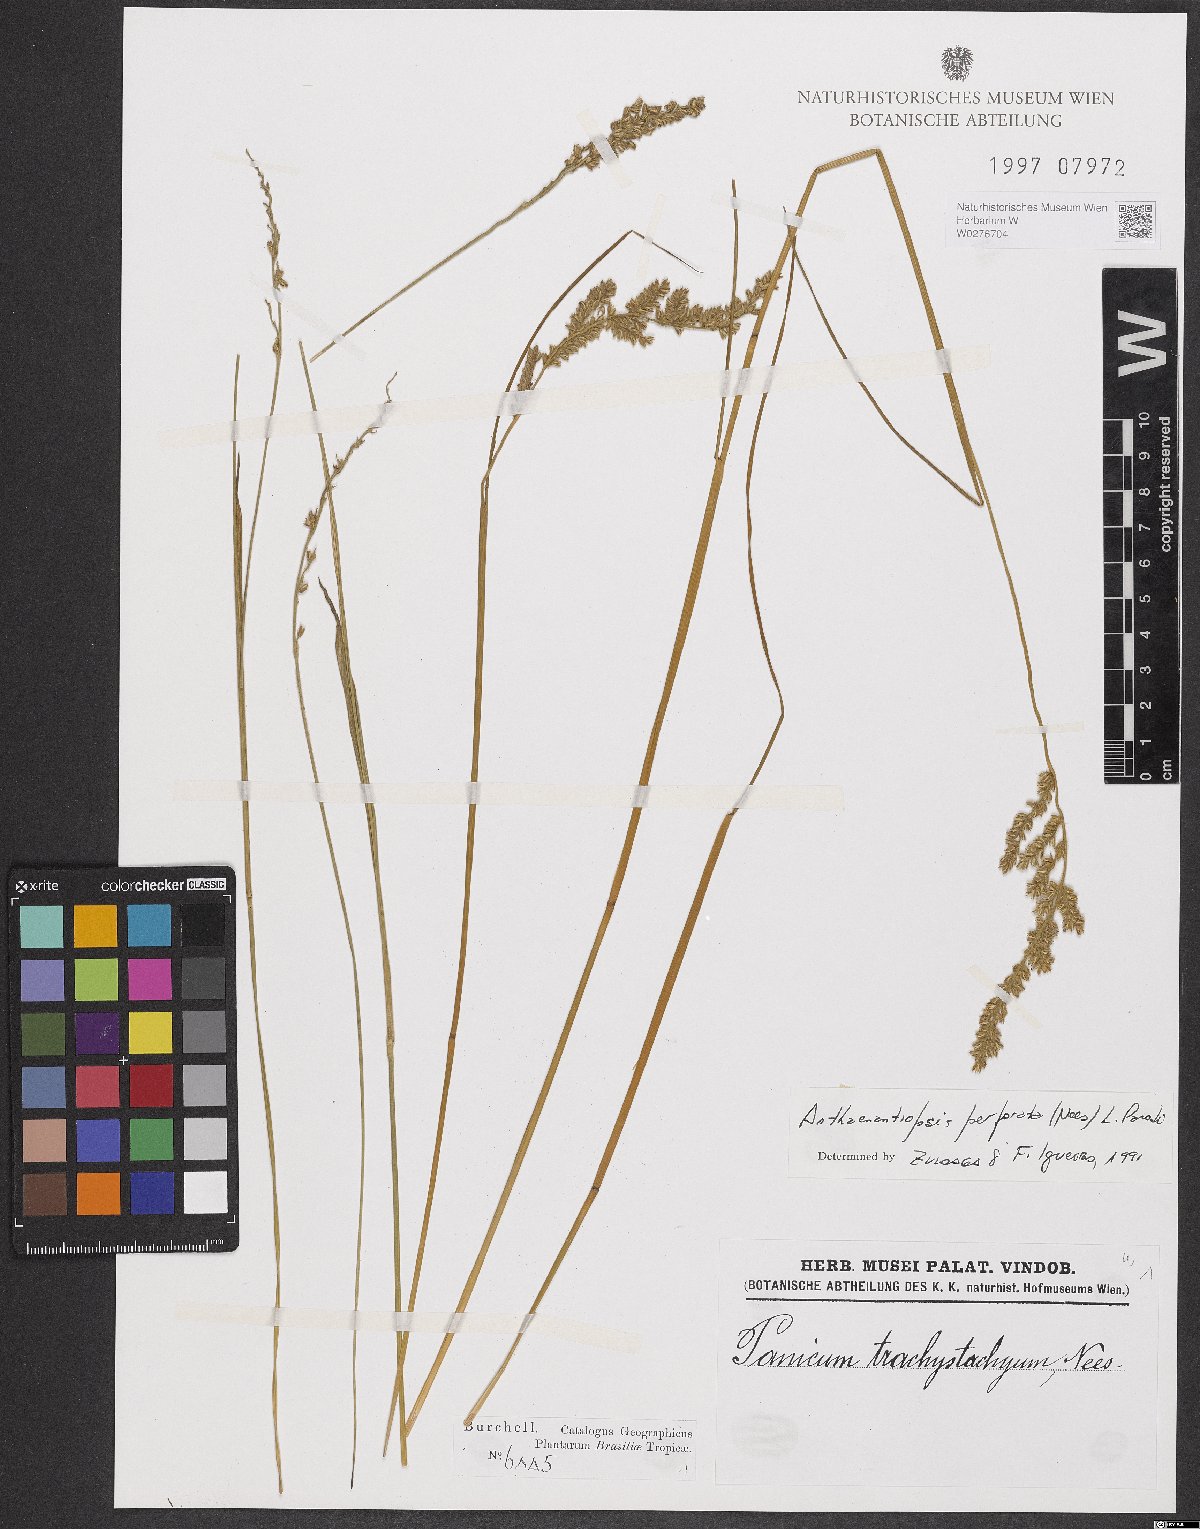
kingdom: Plantae
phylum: Tracheophyta
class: Liliopsida
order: Poales
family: Poaceae
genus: Anthaenantiopsis
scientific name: Anthaenantiopsis perforata
